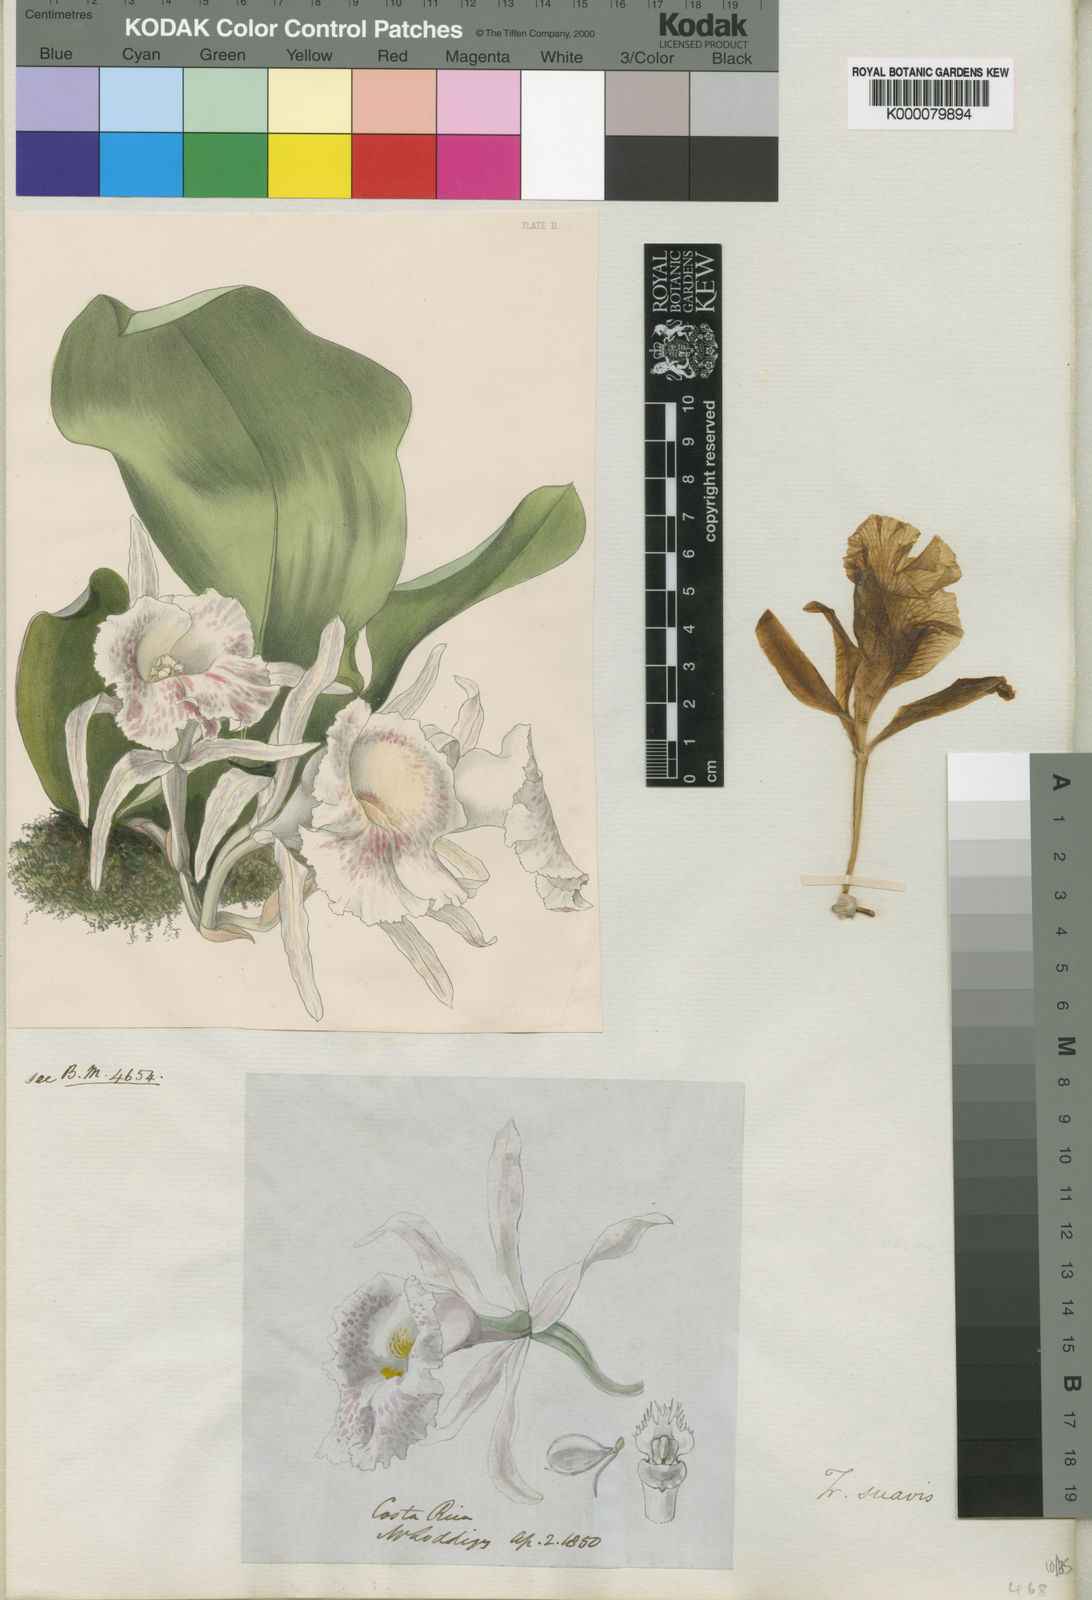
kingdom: Plantae
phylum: Tracheophyta
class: Liliopsida
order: Asparagales
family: Orchidaceae
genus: Trichopilia
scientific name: Trichopilia suavis
